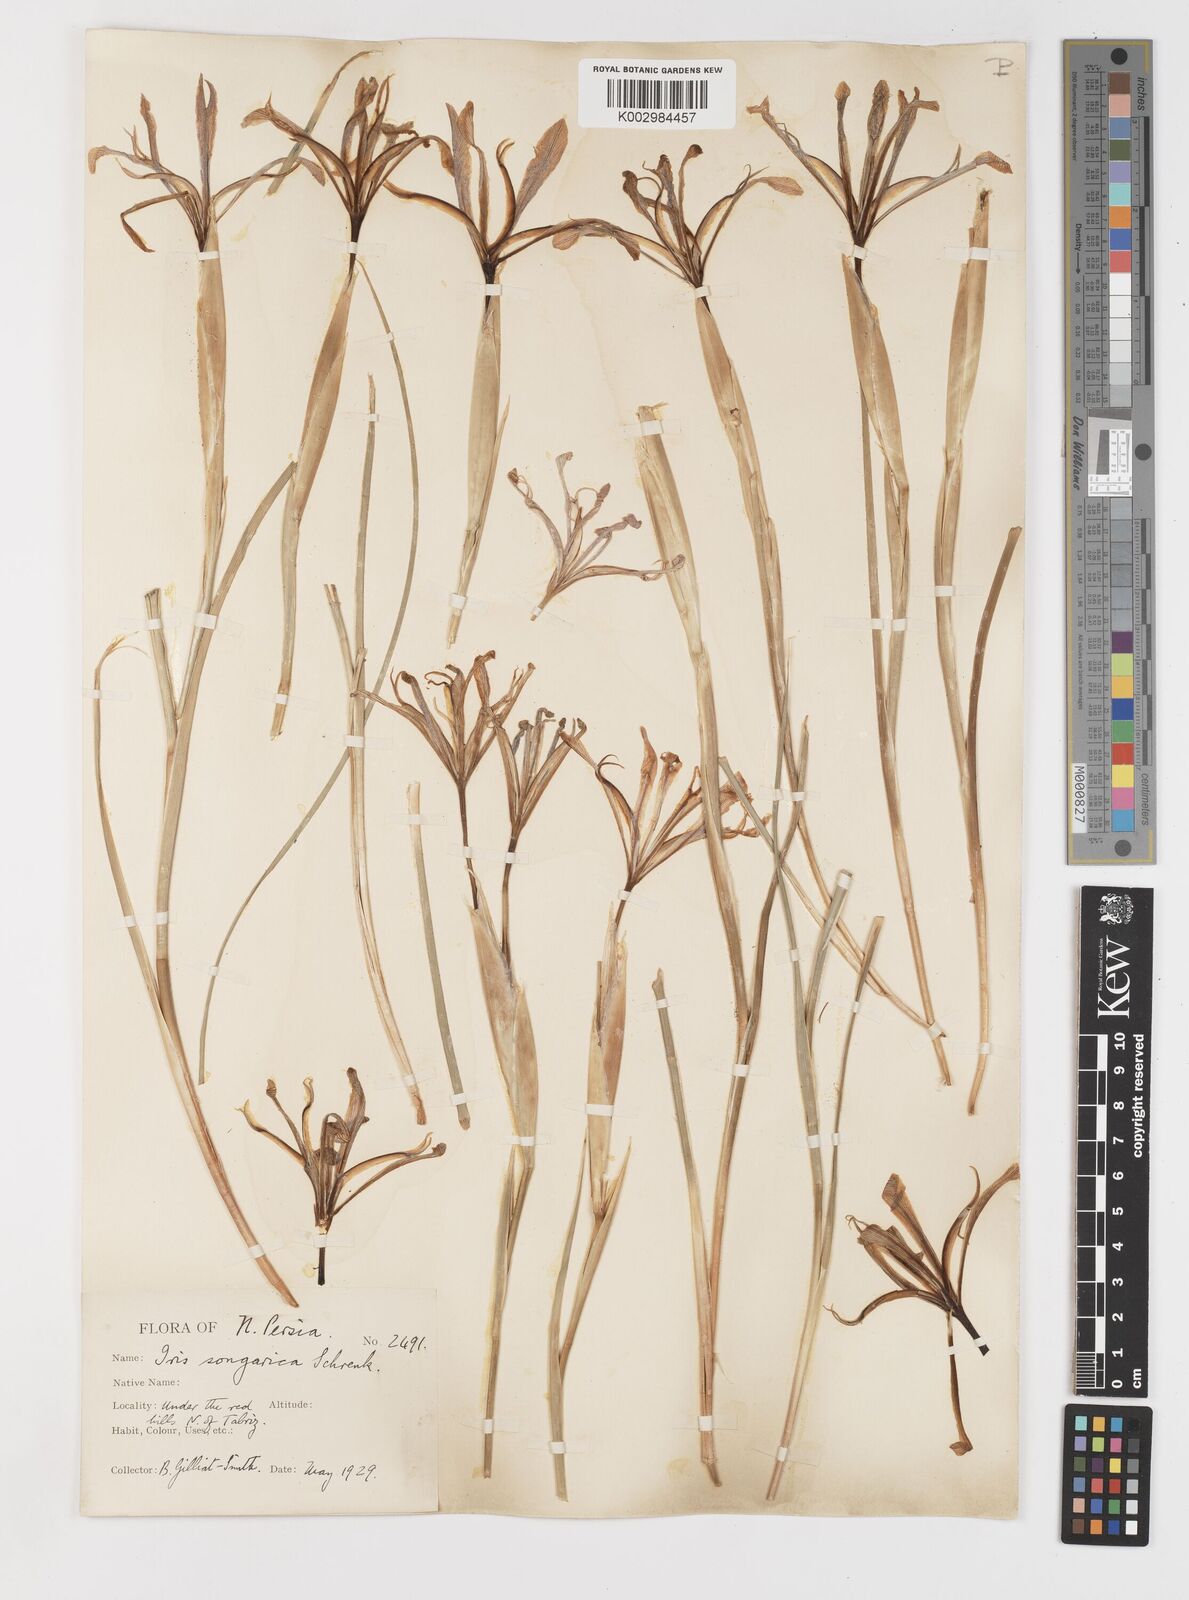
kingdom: Plantae
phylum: Tracheophyta
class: Liliopsida
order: Asparagales
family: Iridaceae
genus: Iris
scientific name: Iris songarica
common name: Songar iris
